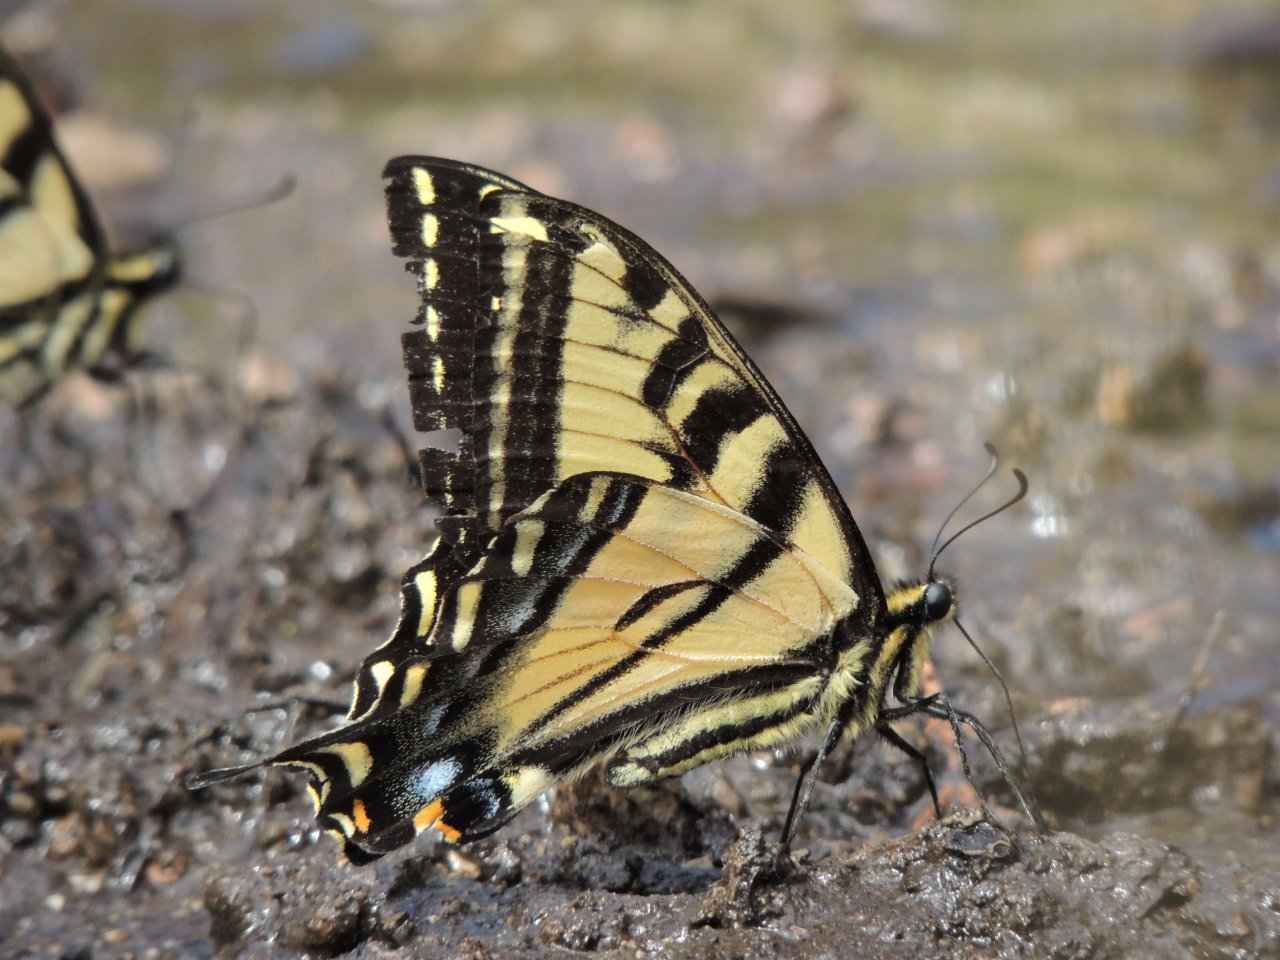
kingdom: Animalia
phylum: Arthropoda
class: Insecta
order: Lepidoptera
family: Papilionidae
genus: Pterourus
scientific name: Pterourus rutulus
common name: Western Tiger Swallowtail
